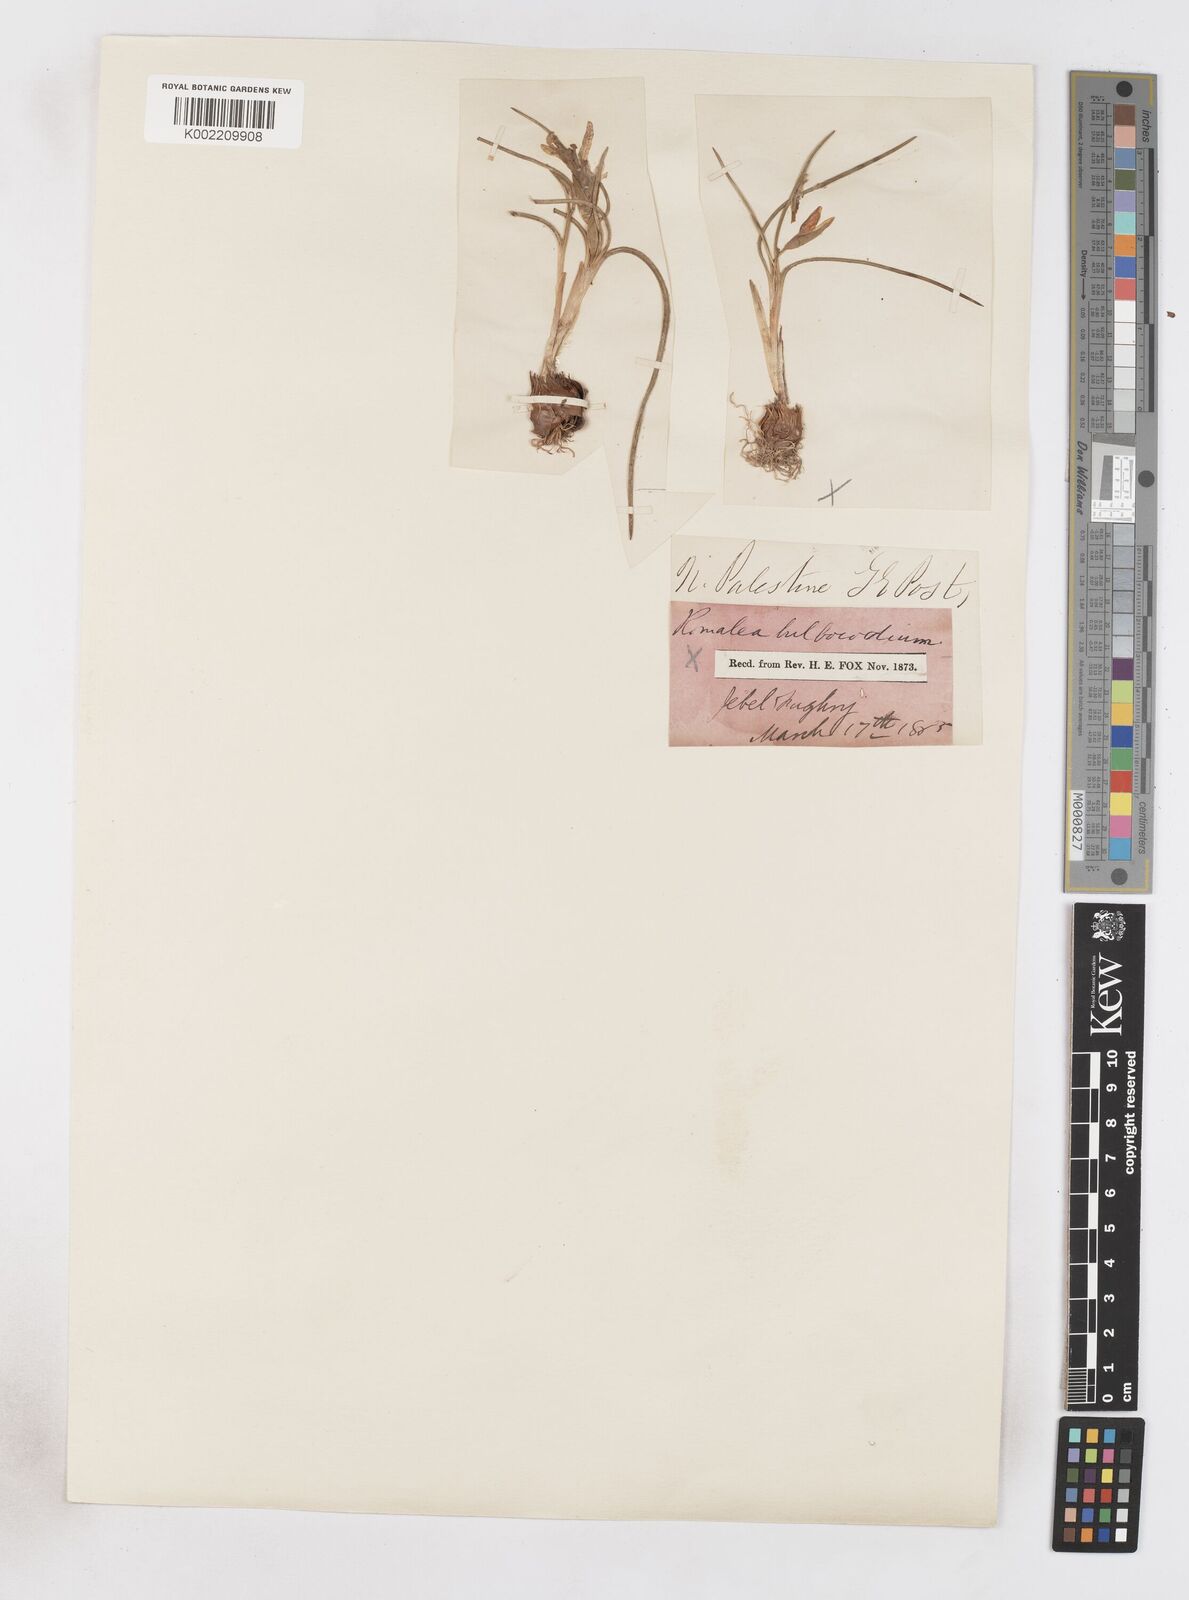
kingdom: Plantae
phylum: Tracheophyta
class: Liliopsida
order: Asparagales
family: Iridaceae
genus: Romulea
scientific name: Romulea bulbocodium
